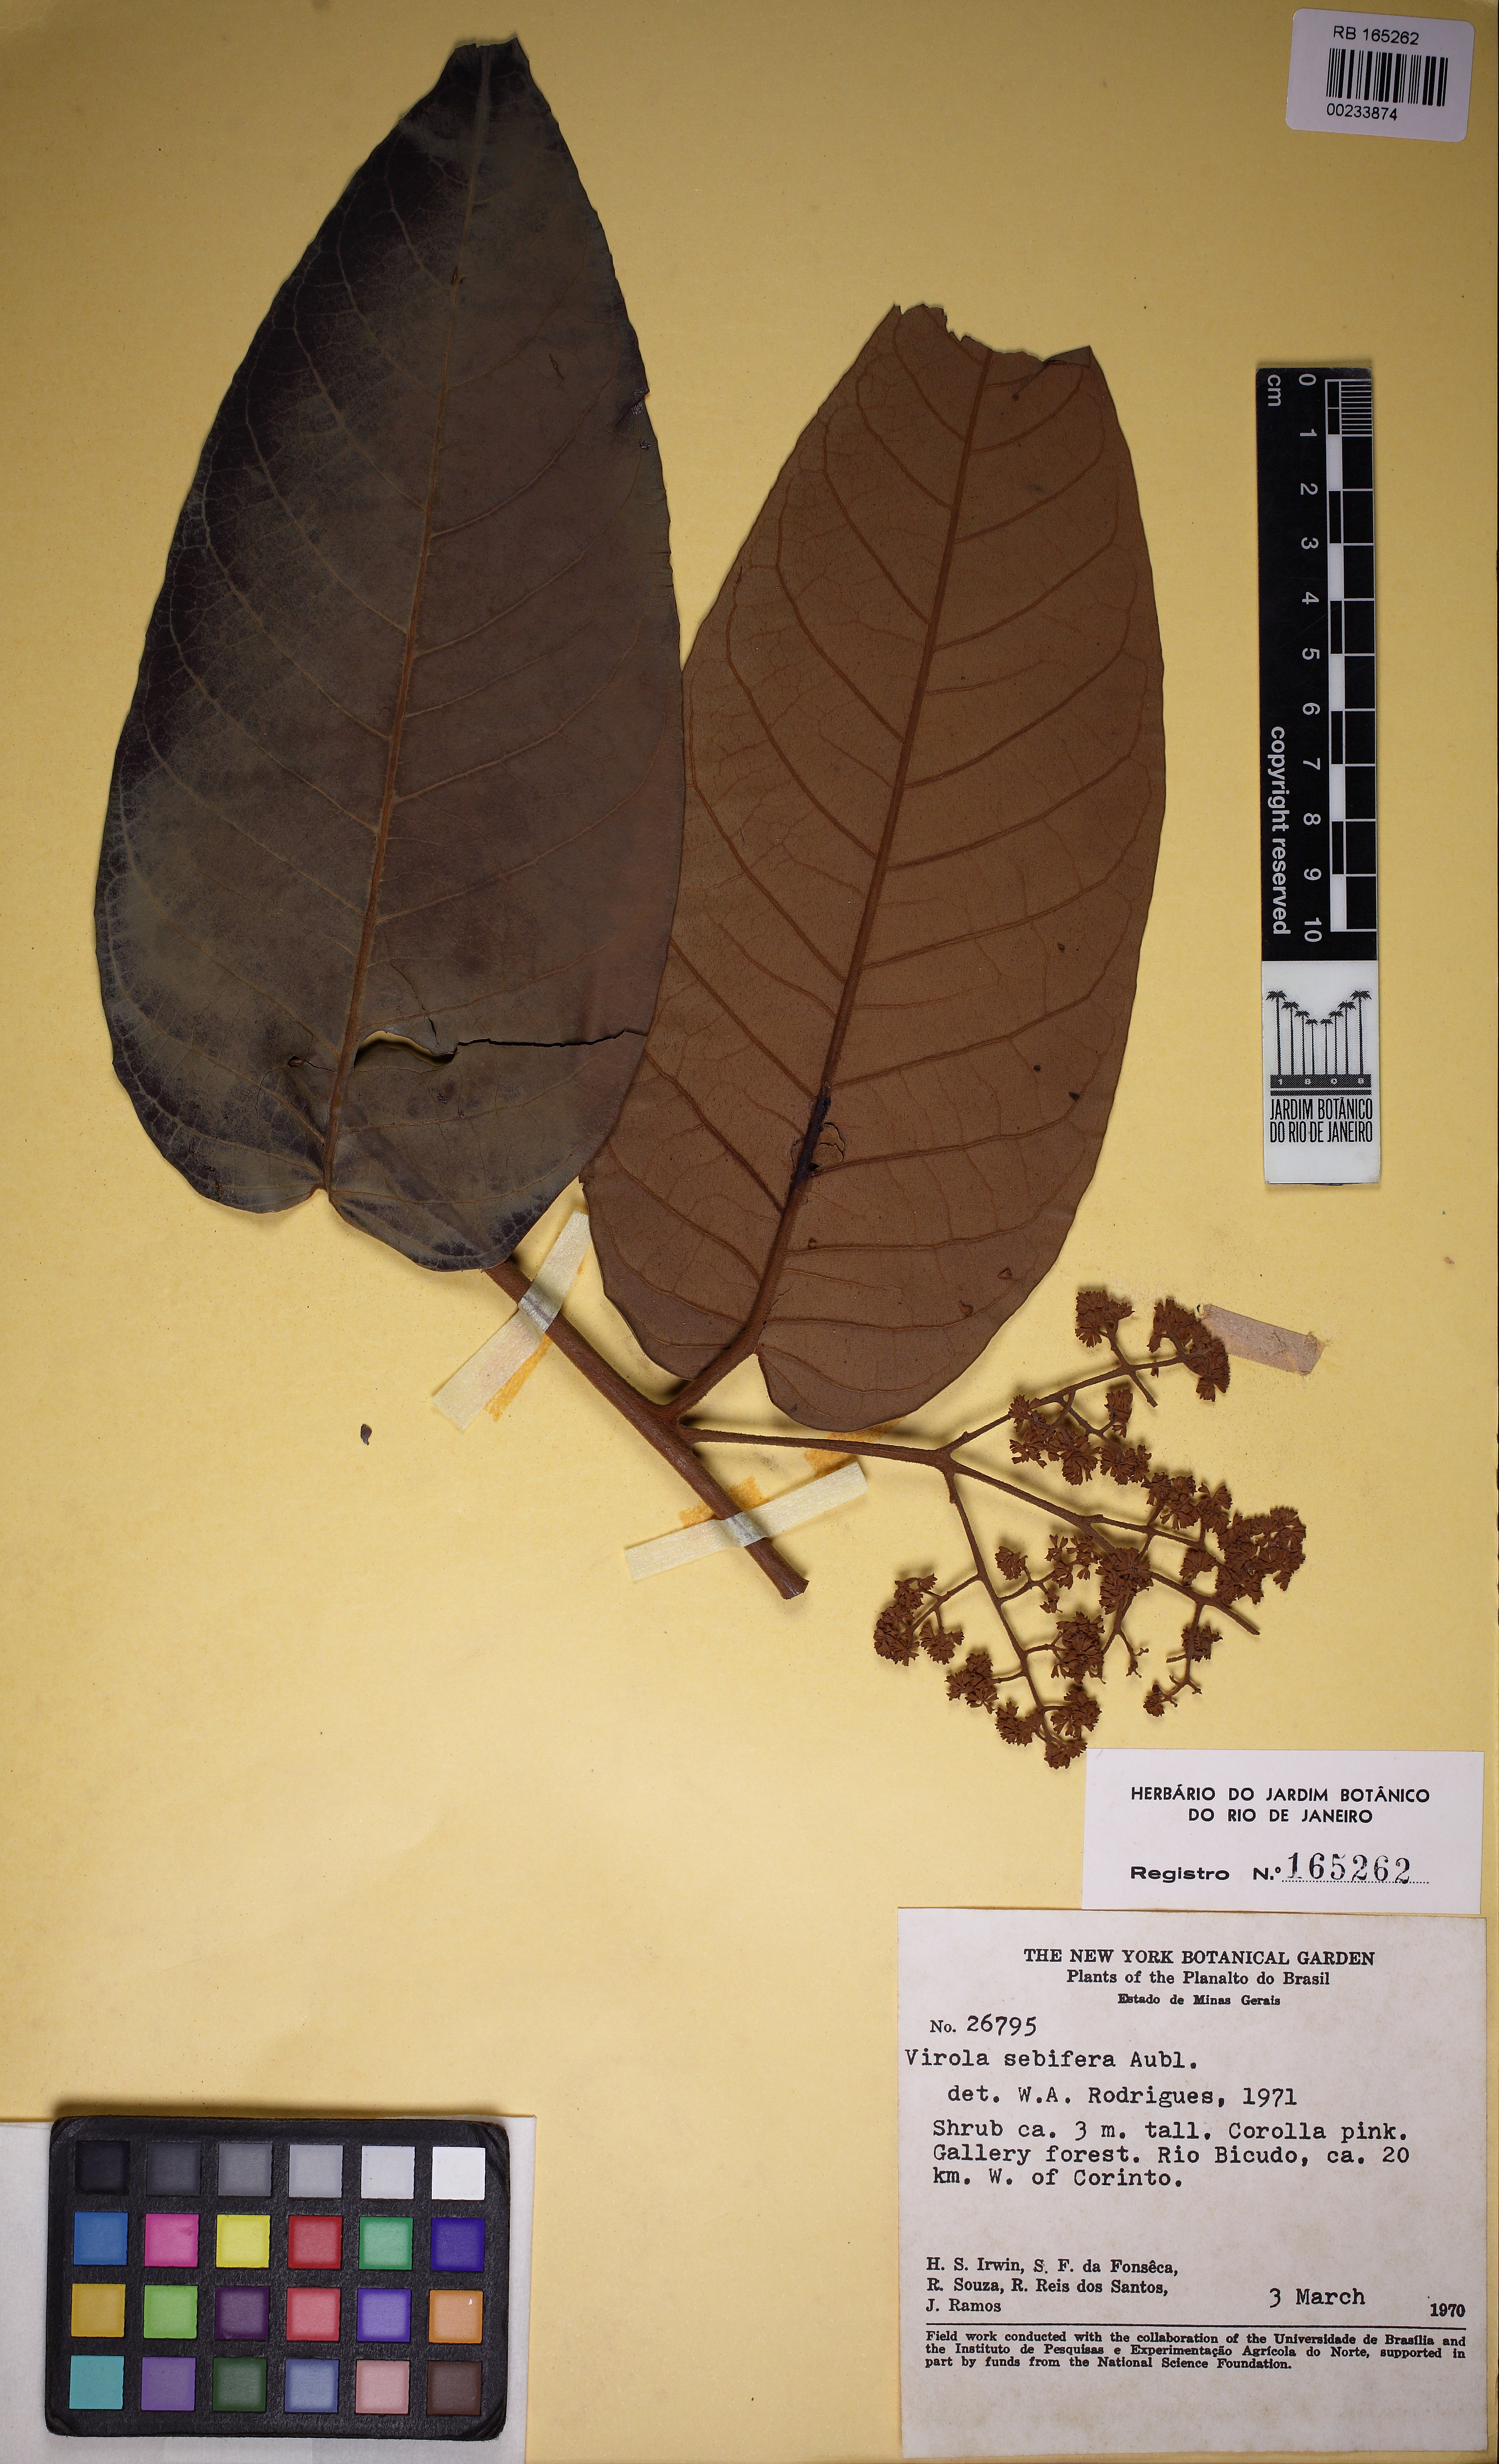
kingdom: Plantae
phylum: Tracheophyta
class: Magnoliopsida
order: Magnoliales
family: Myristicaceae
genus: Virola
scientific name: Virola sebifera
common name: Red ucuuba
